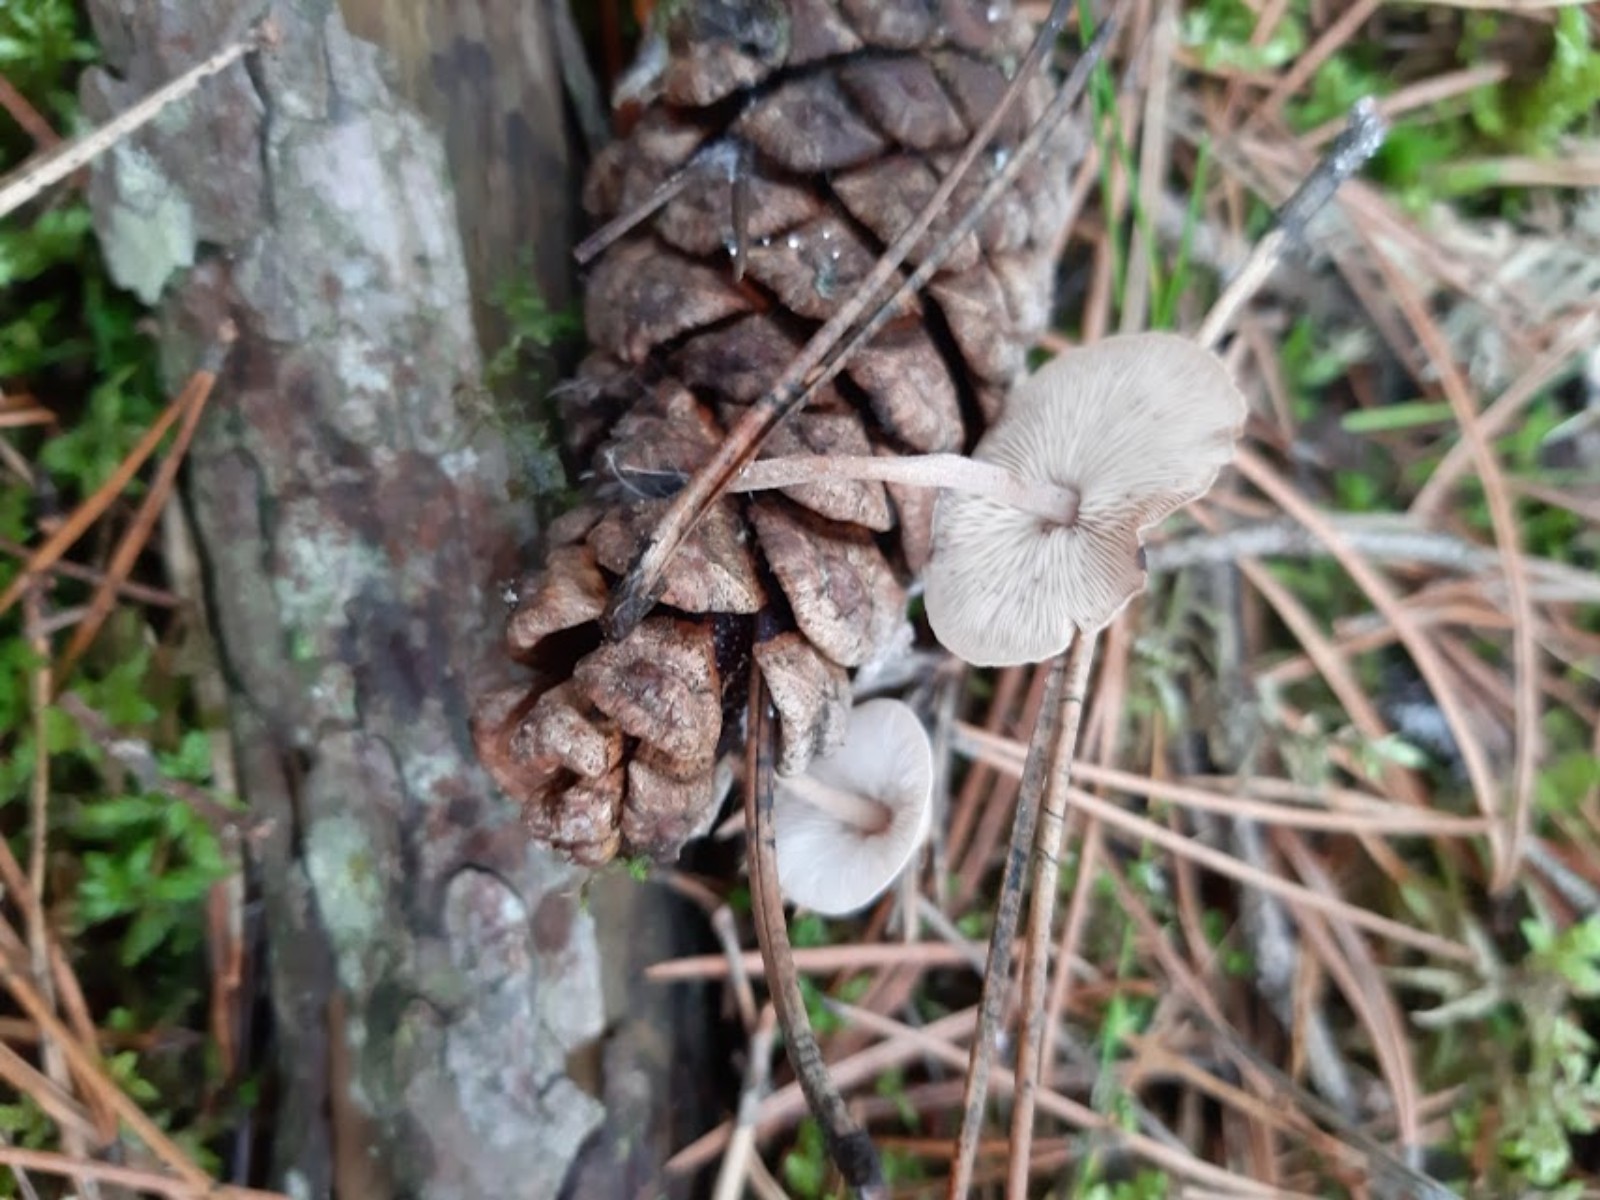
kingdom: Fungi
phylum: Basidiomycota
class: Agaricomycetes
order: Agaricales
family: Marasmiaceae
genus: Baeospora
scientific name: Baeospora myosura
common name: koglebruskhat
